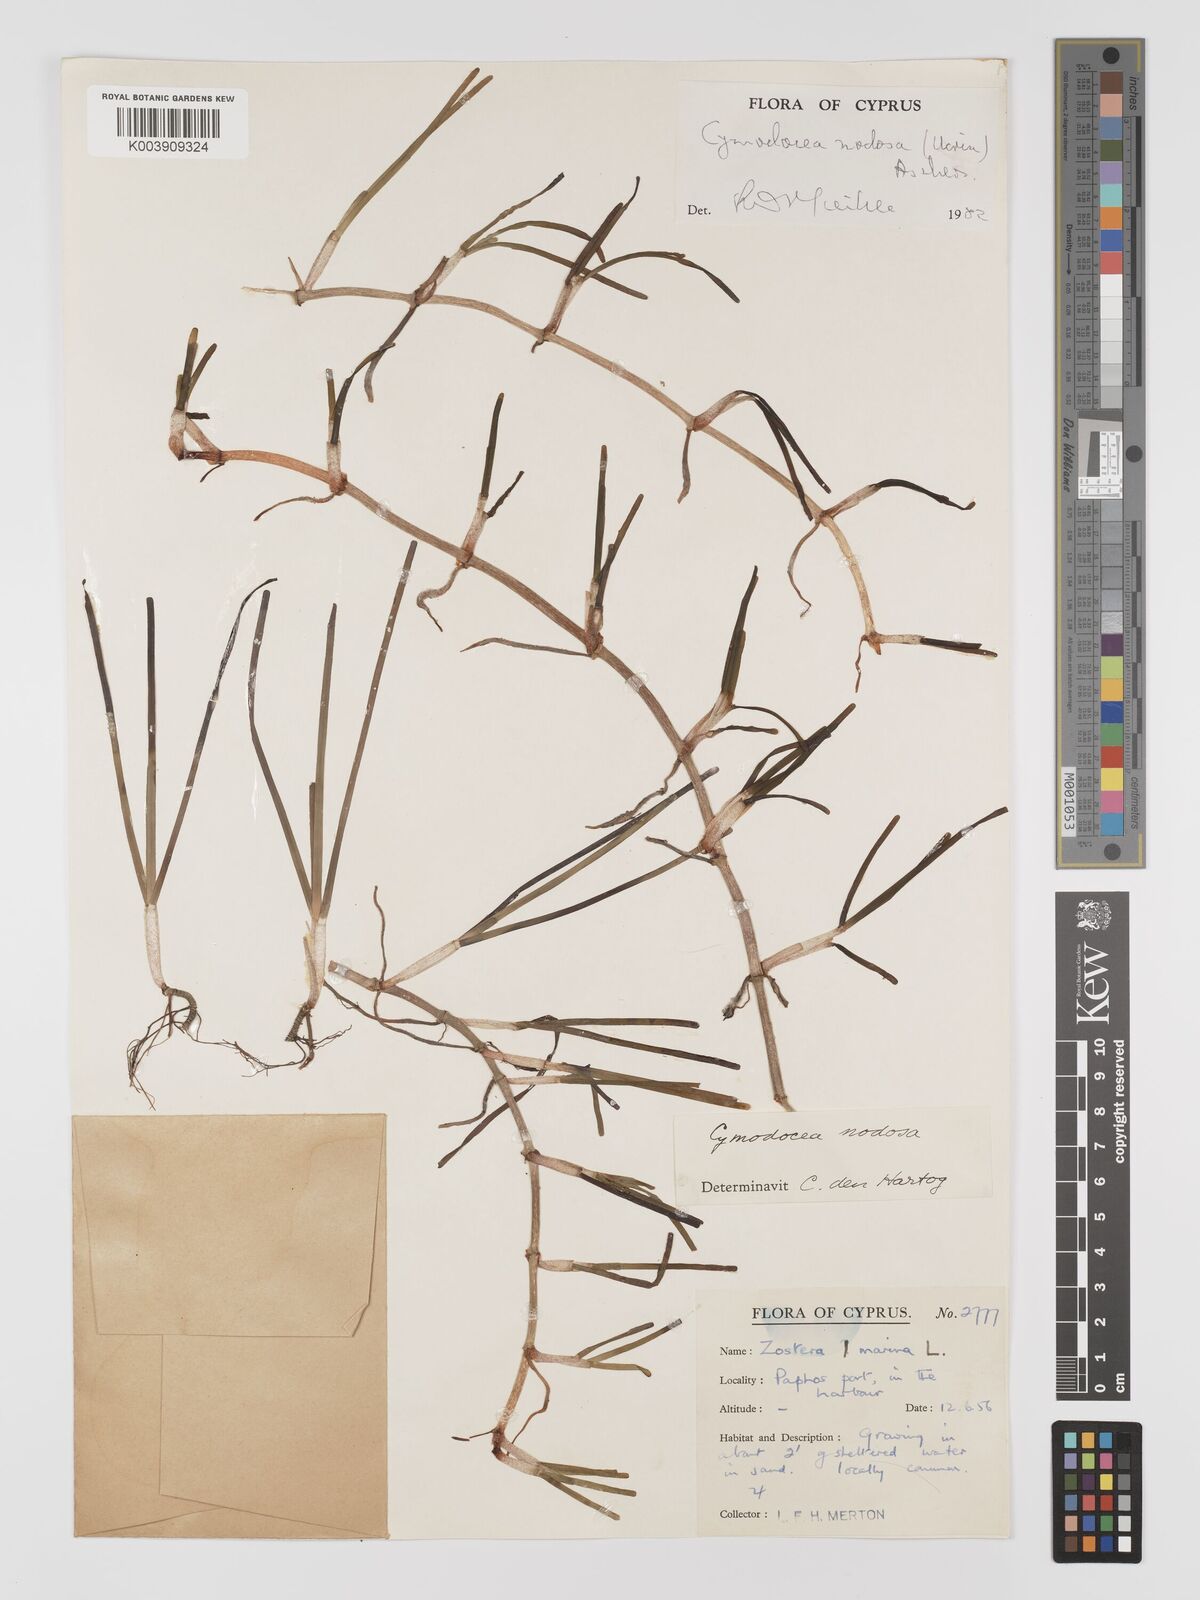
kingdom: Plantae
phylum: Tracheophyta
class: Liliopsida
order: Alismatales
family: Cymodoceaceae
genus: Cymodocea
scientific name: Cymodocea nodosa
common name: Slender seagrass
